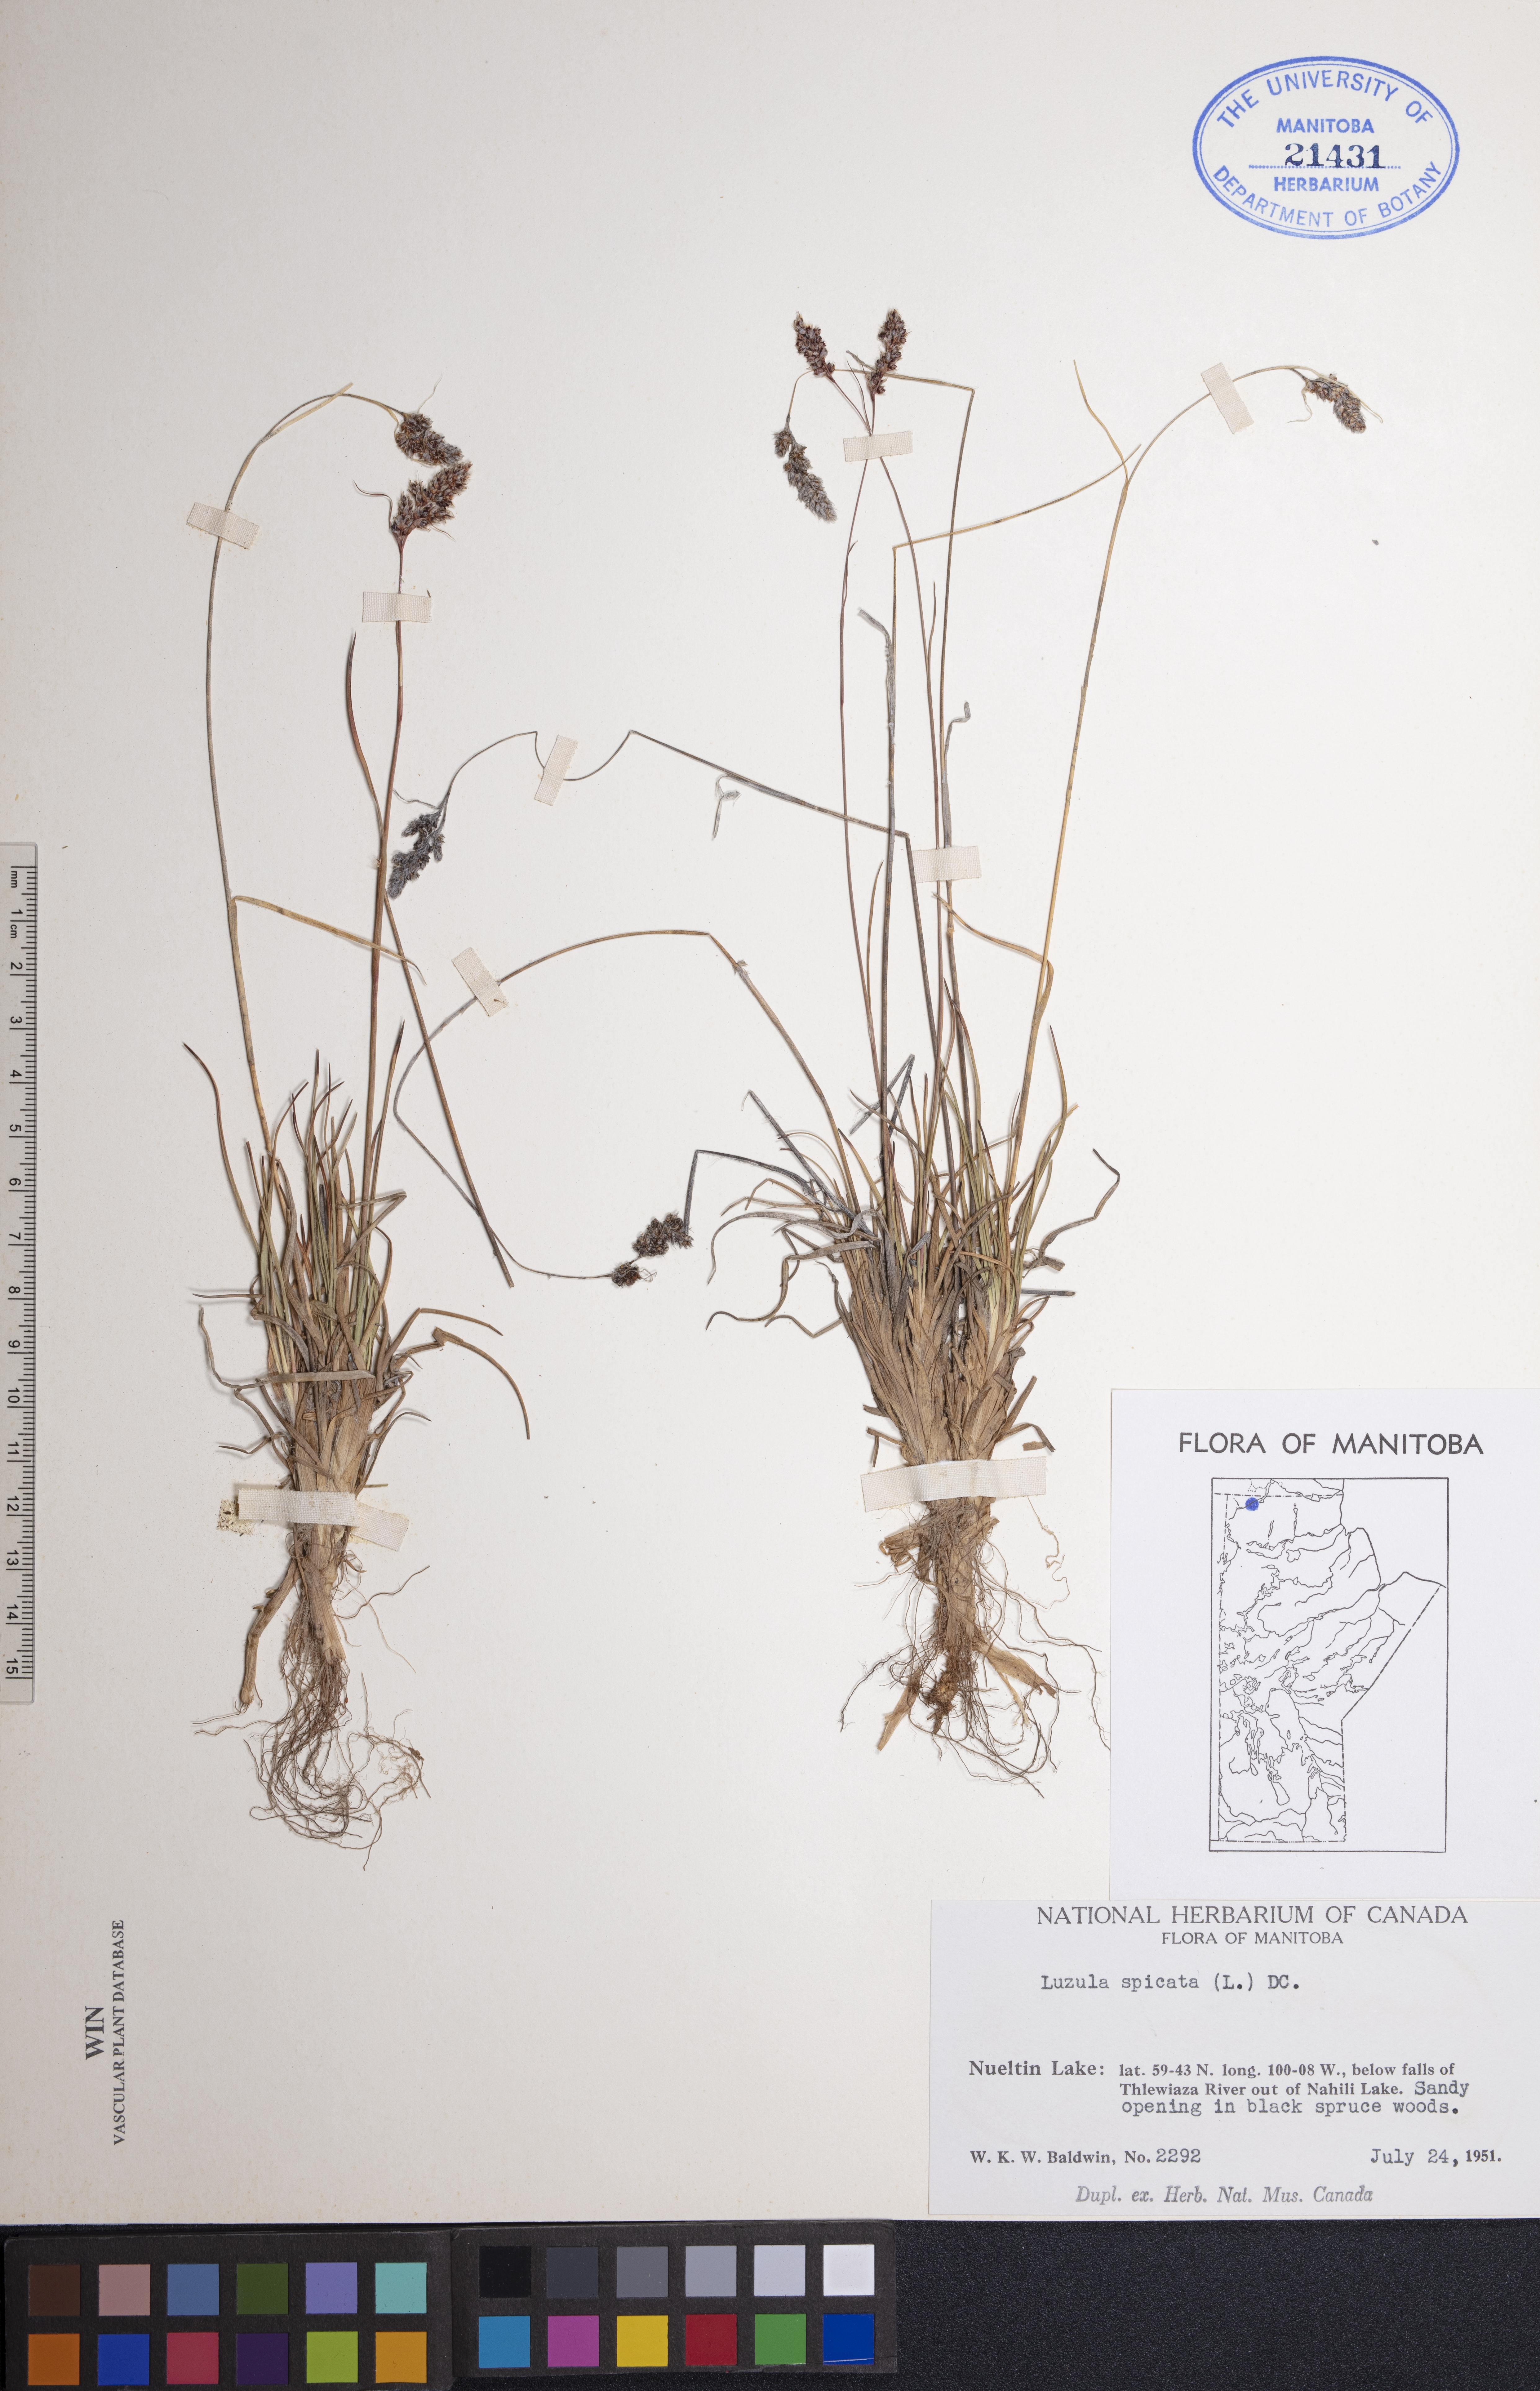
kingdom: Plantae
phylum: Tracheophyta
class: Liliopsida
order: Poales
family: Juncaceae
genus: Luzula
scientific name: Luzula spicata
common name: Spiked wood-rush
